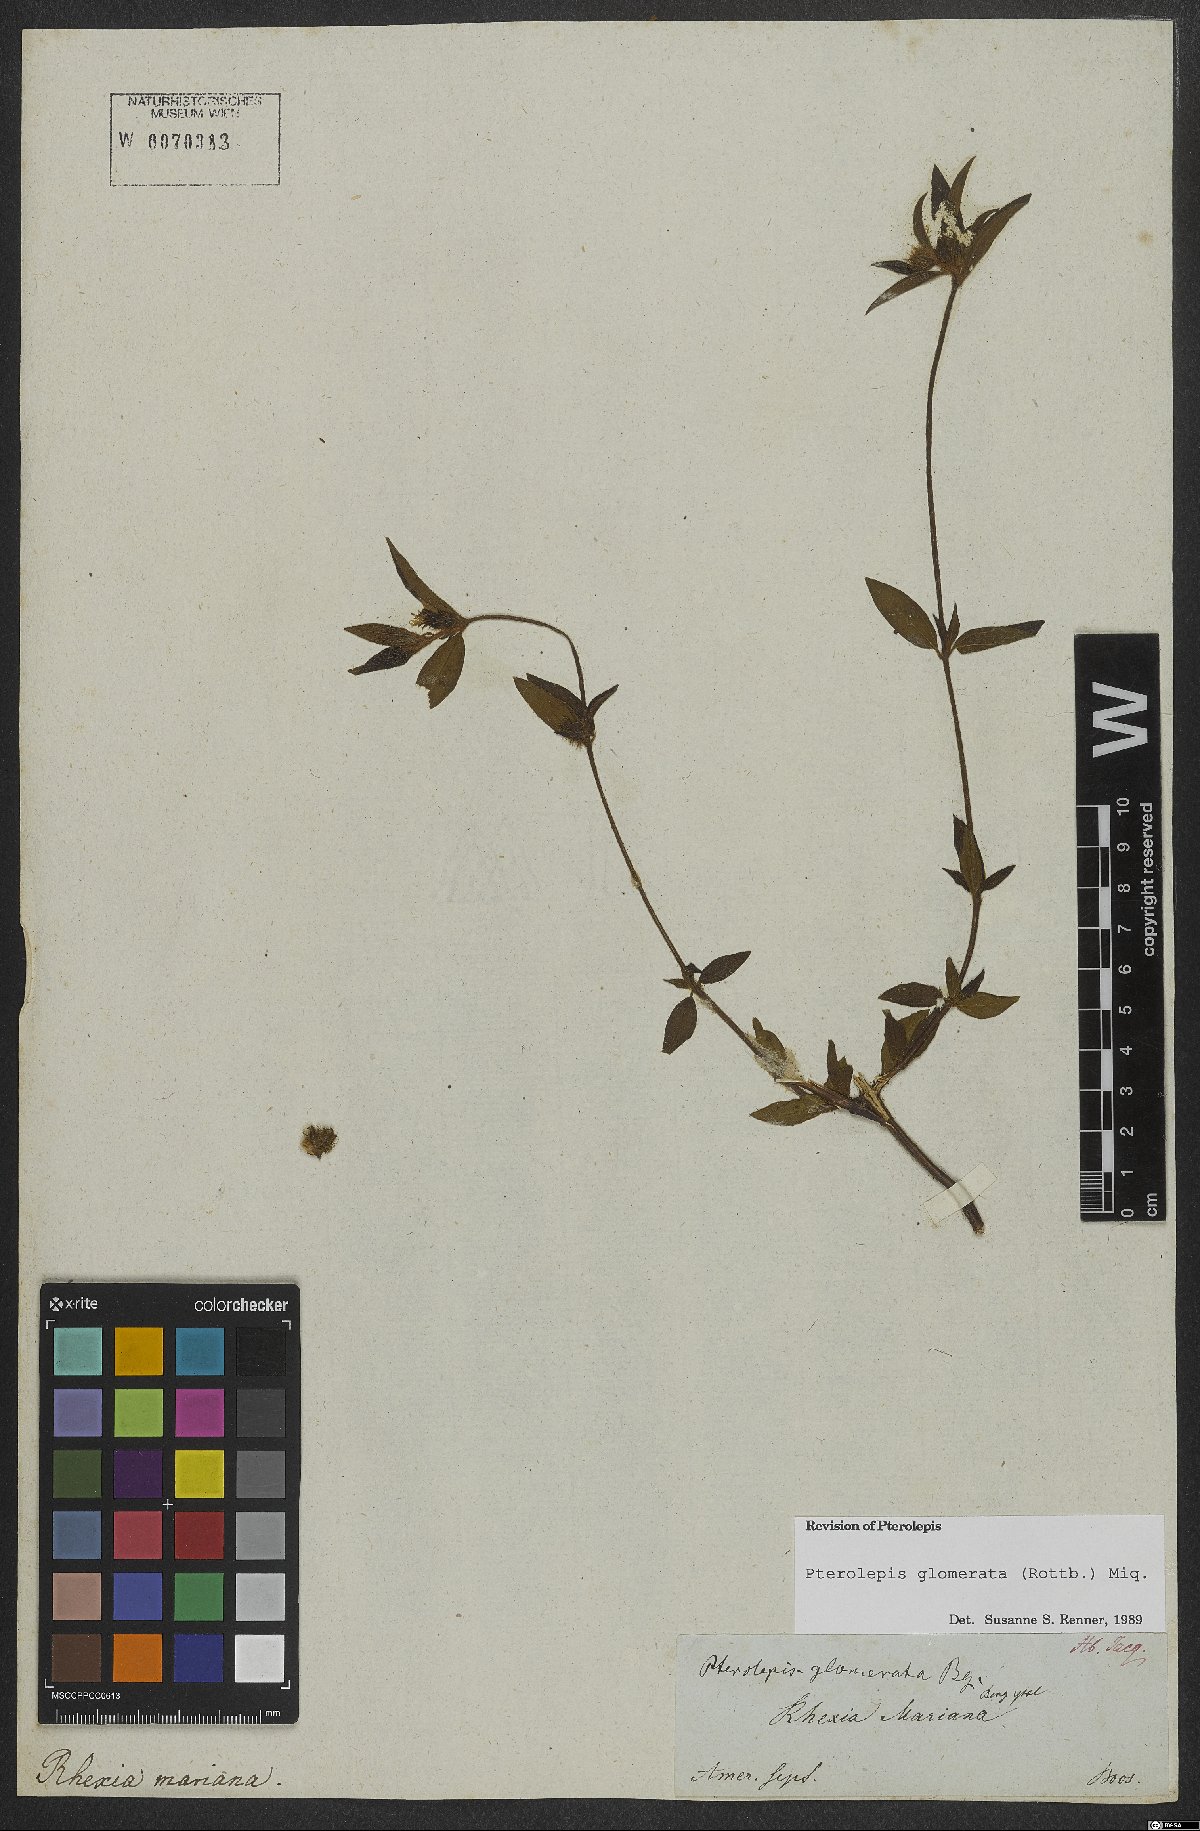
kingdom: Plantae
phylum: Tracheophyta
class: Magnoliopsida
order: Myrtales
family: Melastomataceae
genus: Pterolepis
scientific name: Pterolepis glomerata
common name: False meadowbeauty
